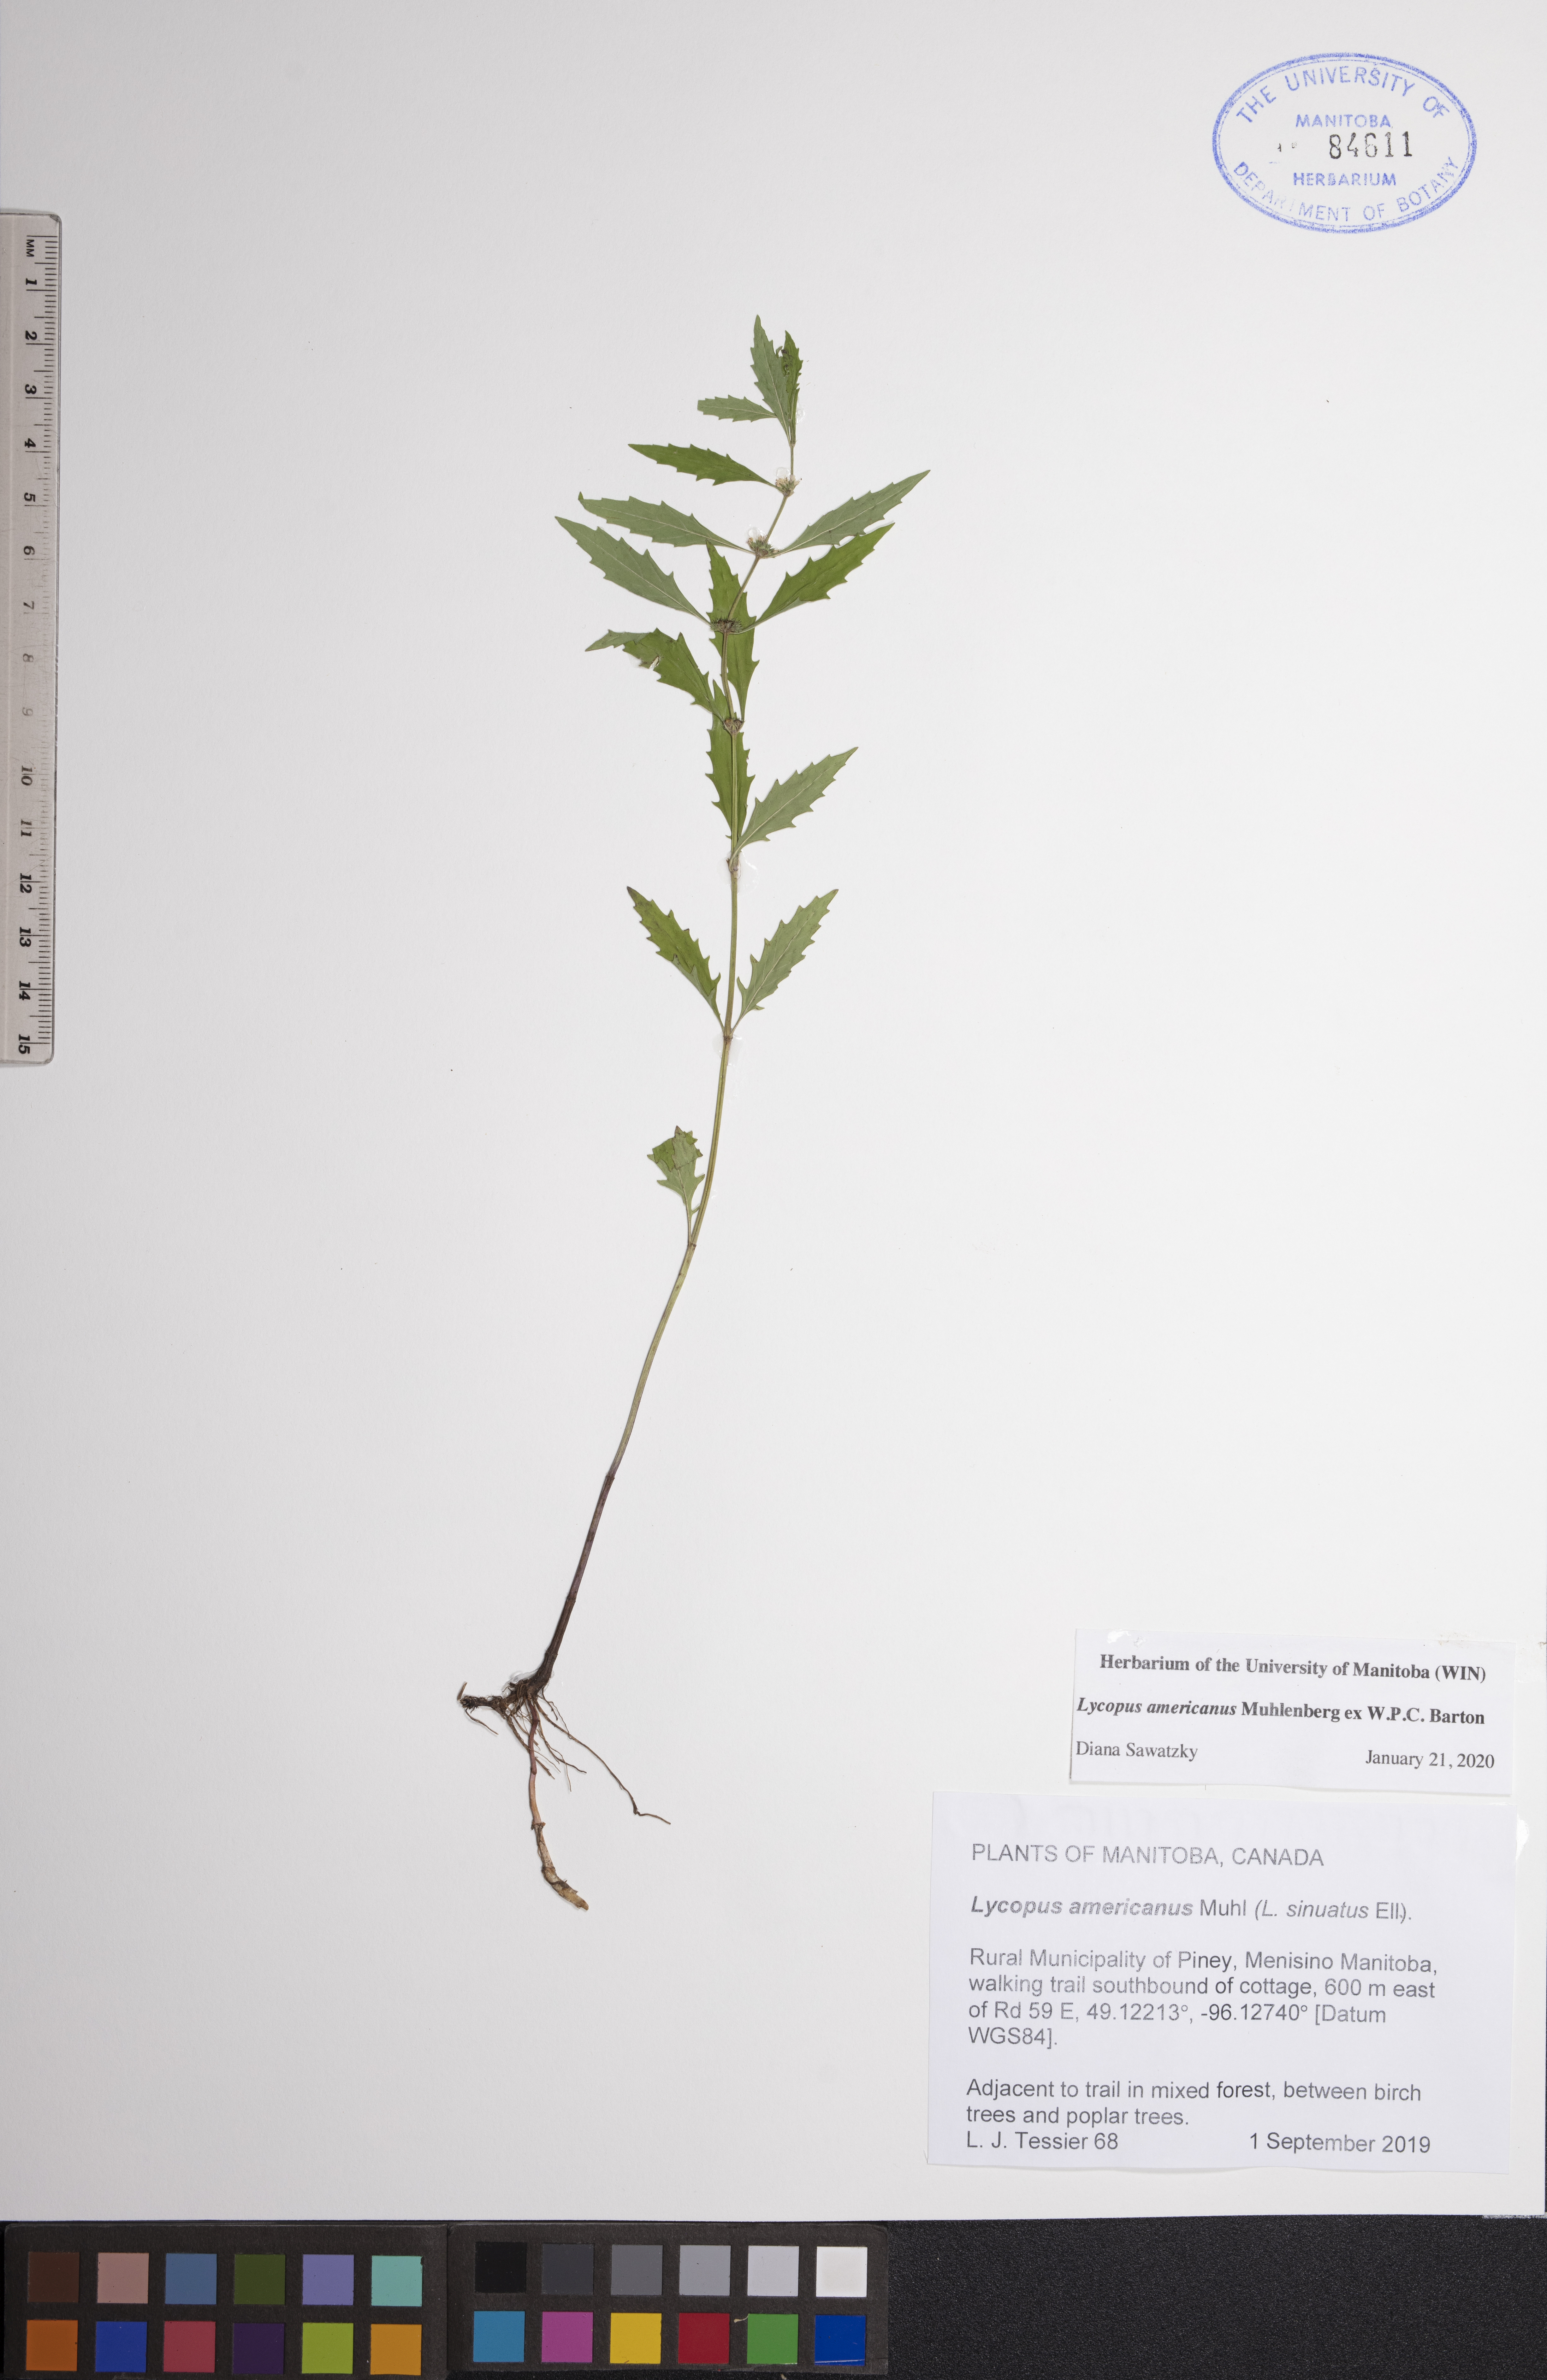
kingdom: Plantae
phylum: Tracheophyta
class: Magnoliopsida
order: Lamiales
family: Lamiaceae
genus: Lycopus
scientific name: Lycopus americanus
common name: American bugleweed
